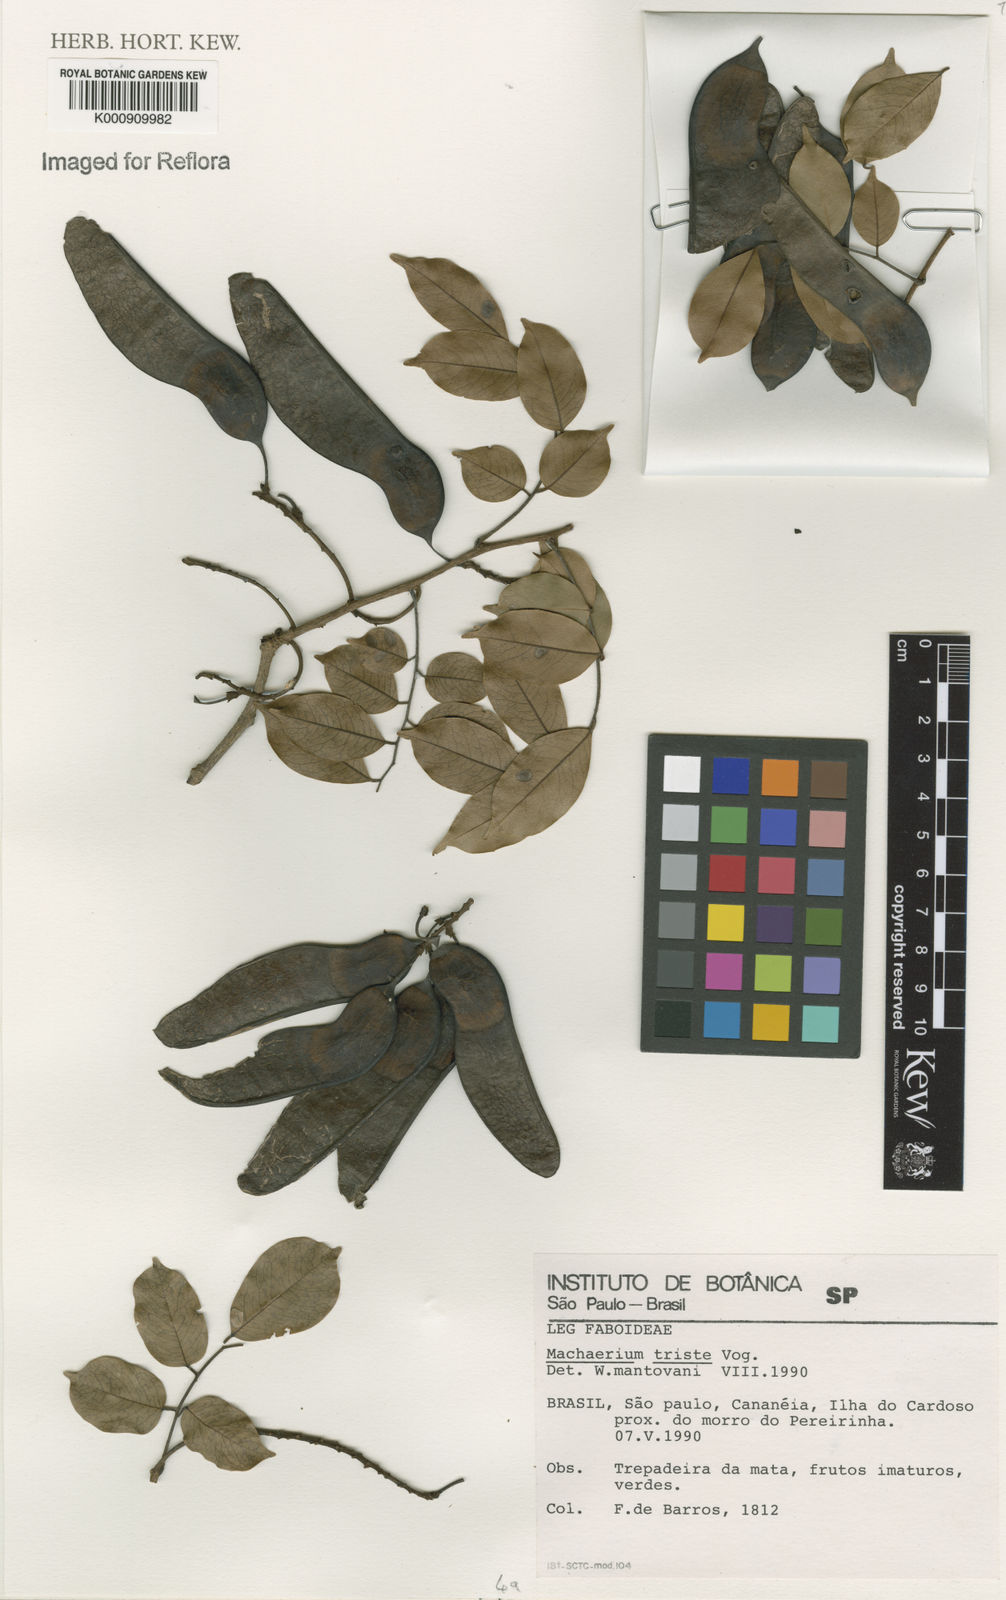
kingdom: Plantae
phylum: Tracheophyta
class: Magnoliopsida
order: Fabales
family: Fabaceae
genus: Machaerium
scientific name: Machaerium brasiliense
